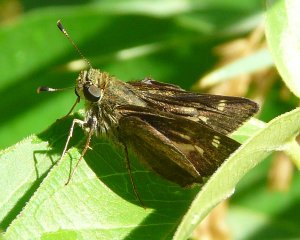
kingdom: Animalia
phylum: Arthropoda
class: Insecta
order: Lepidoptera
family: Hesperiidae
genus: Vernia
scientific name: Vernia verna
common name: Little Glassywing
